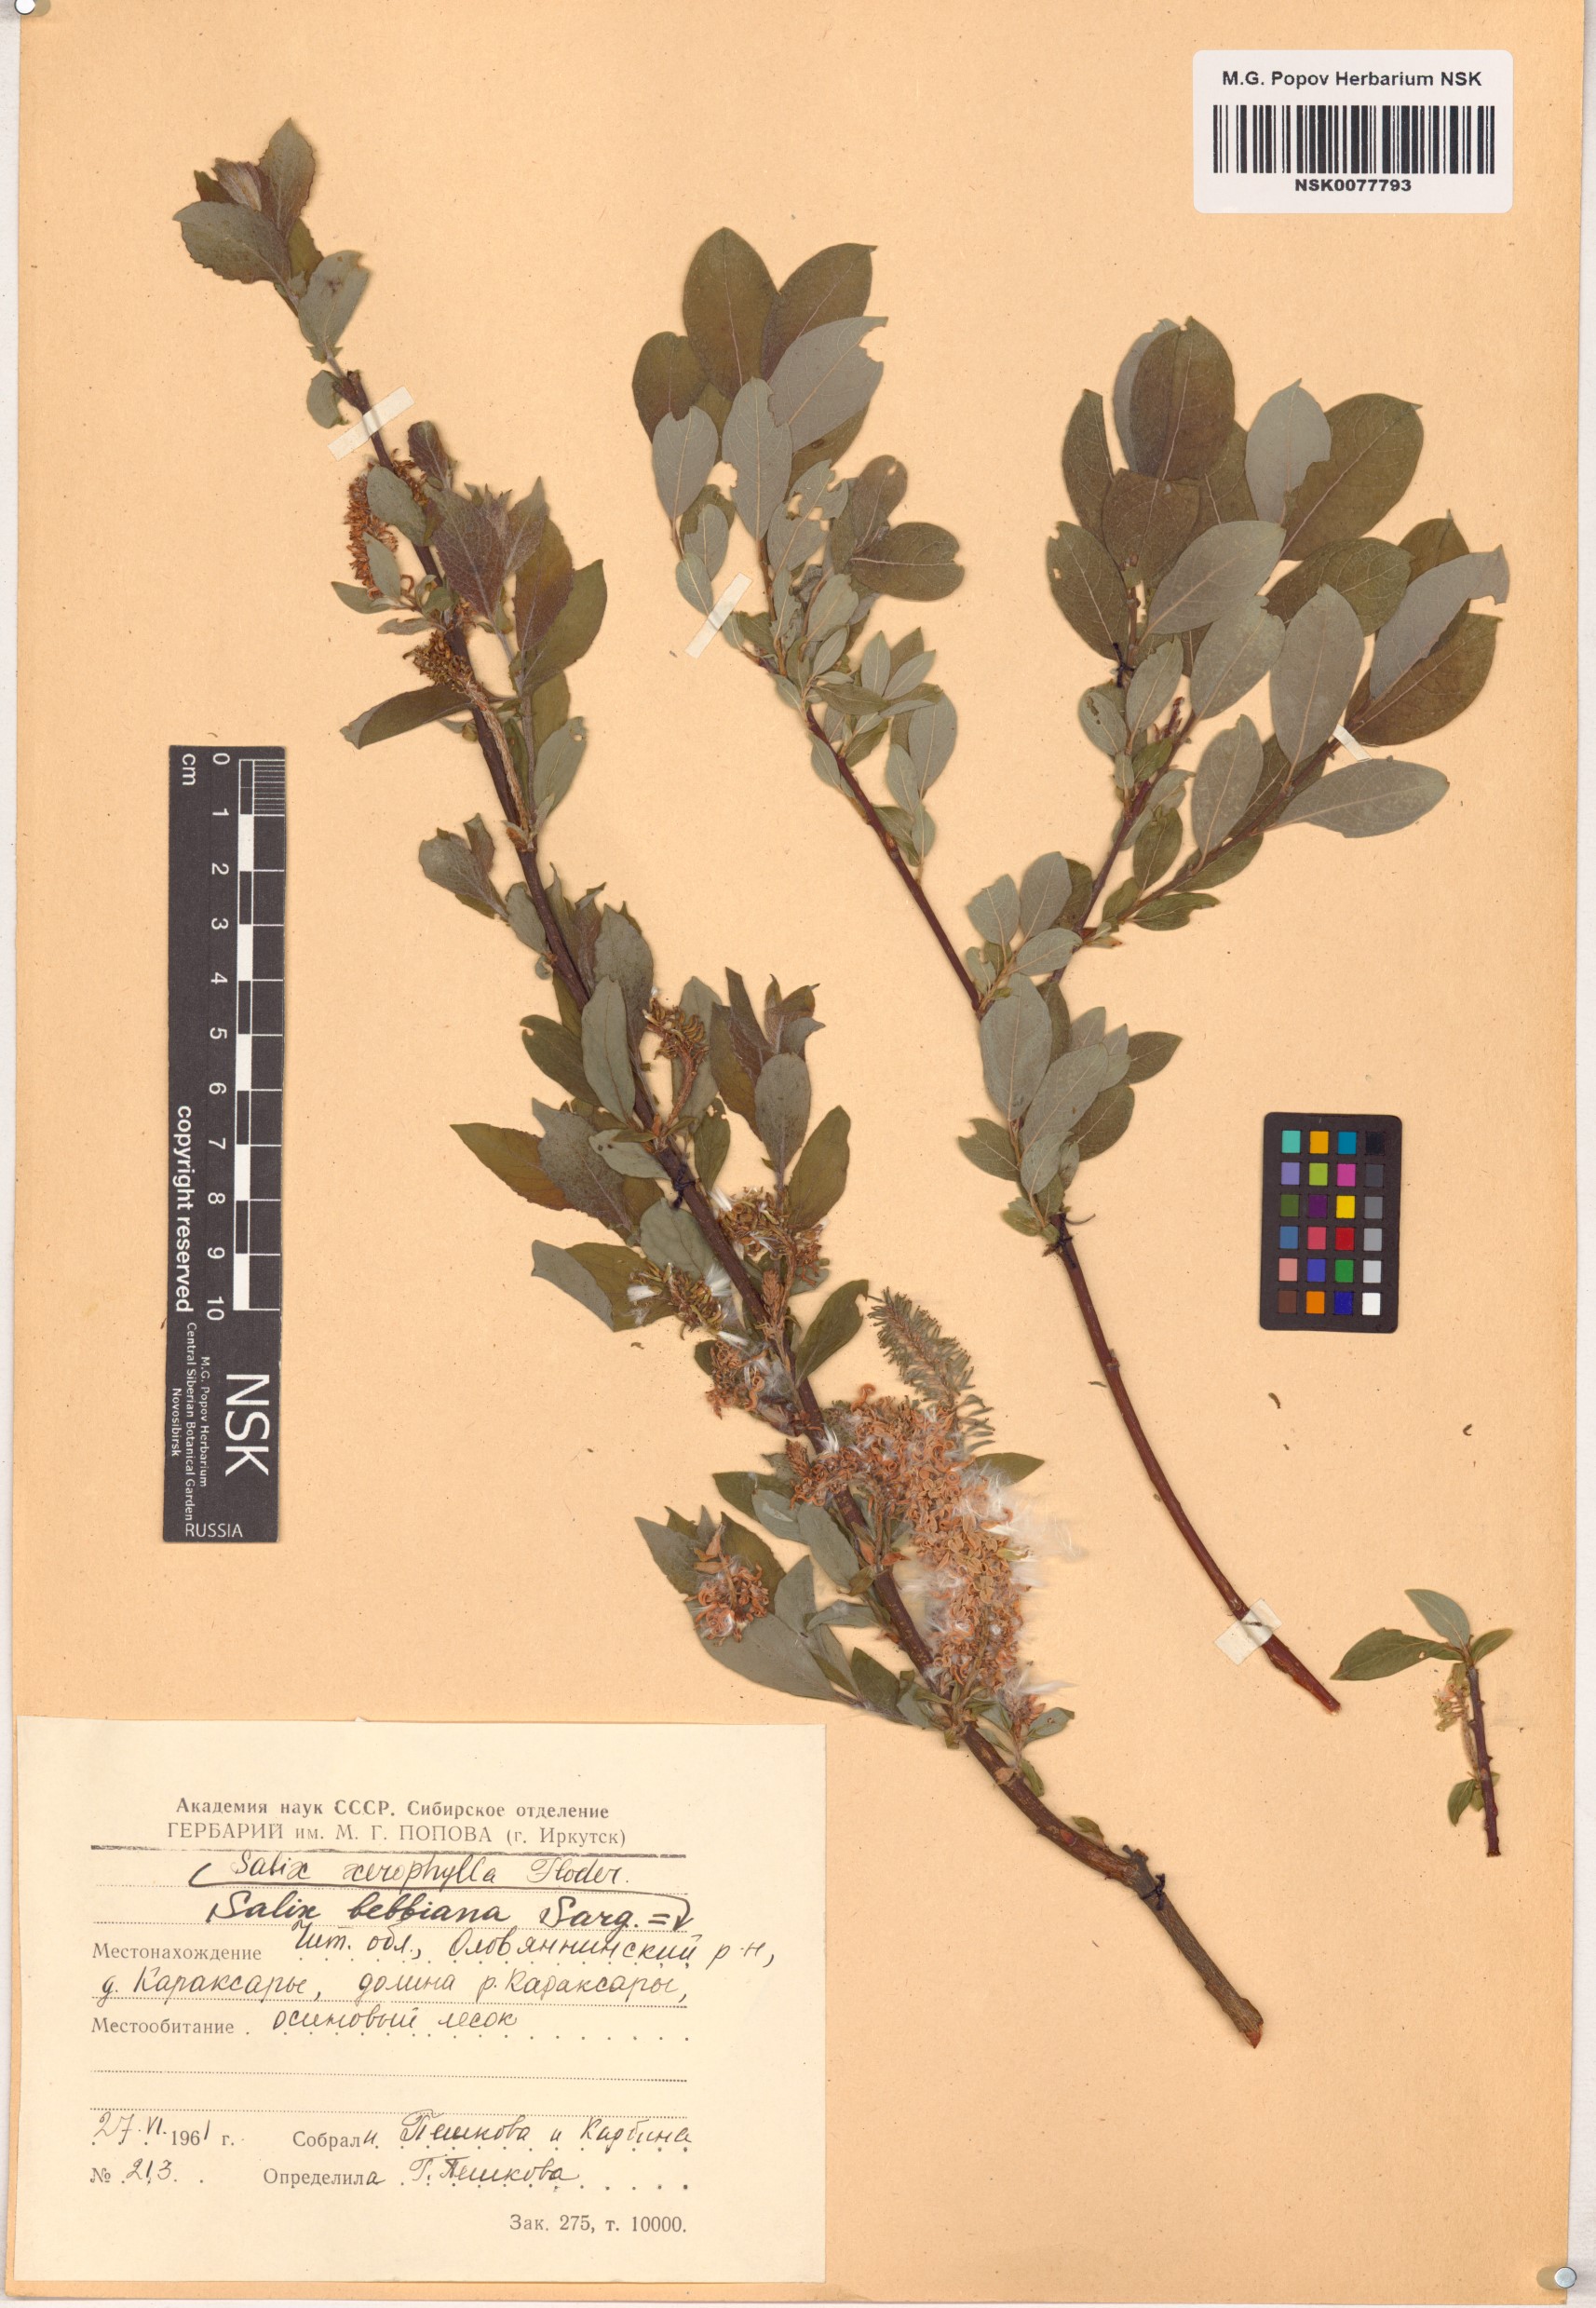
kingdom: Plantae
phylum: Tracheophyta
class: Magnoliopsida
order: Malpighiales
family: Salicaceae
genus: Salix
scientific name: Salix bebbiana
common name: Bebb's willow
